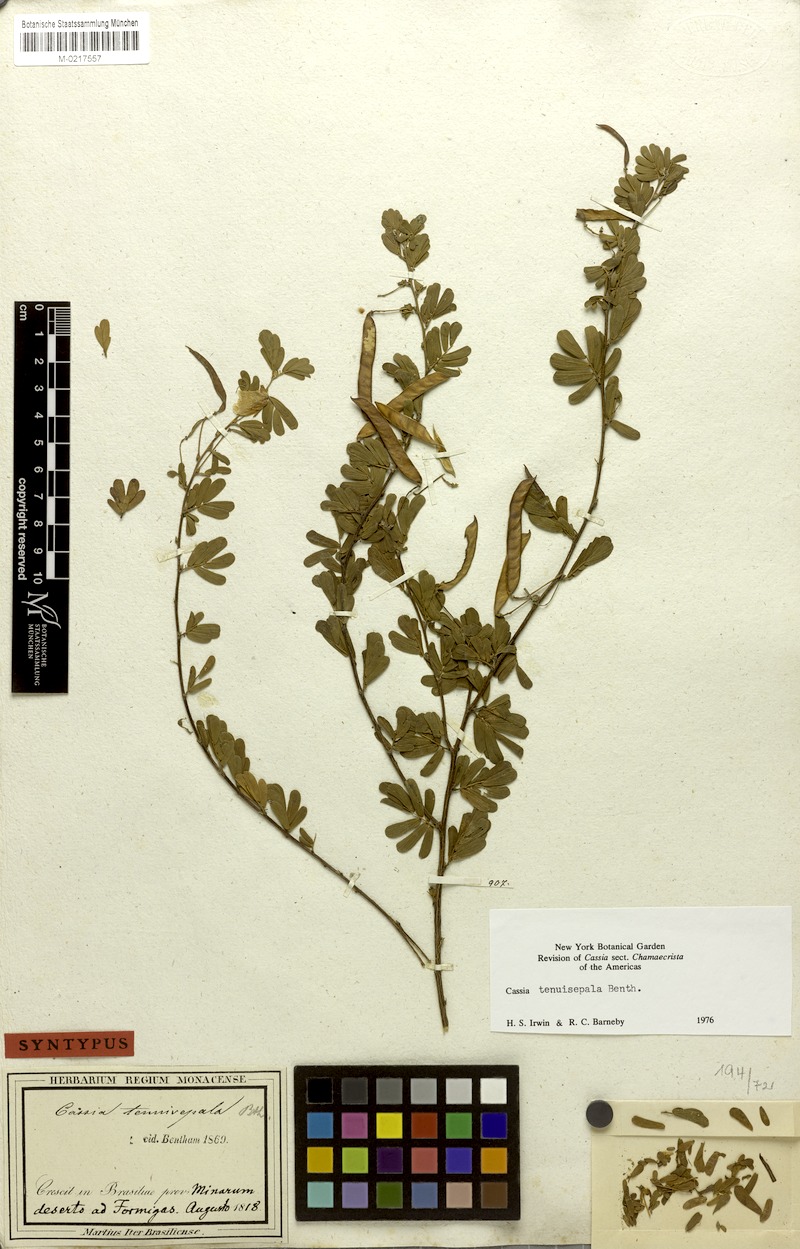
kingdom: Plantae
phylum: Tracheophyta
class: Magnoliopsida
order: Fabales
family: Fabaceae
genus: Chamaecrista
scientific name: Chamaecrista tenuisepala
